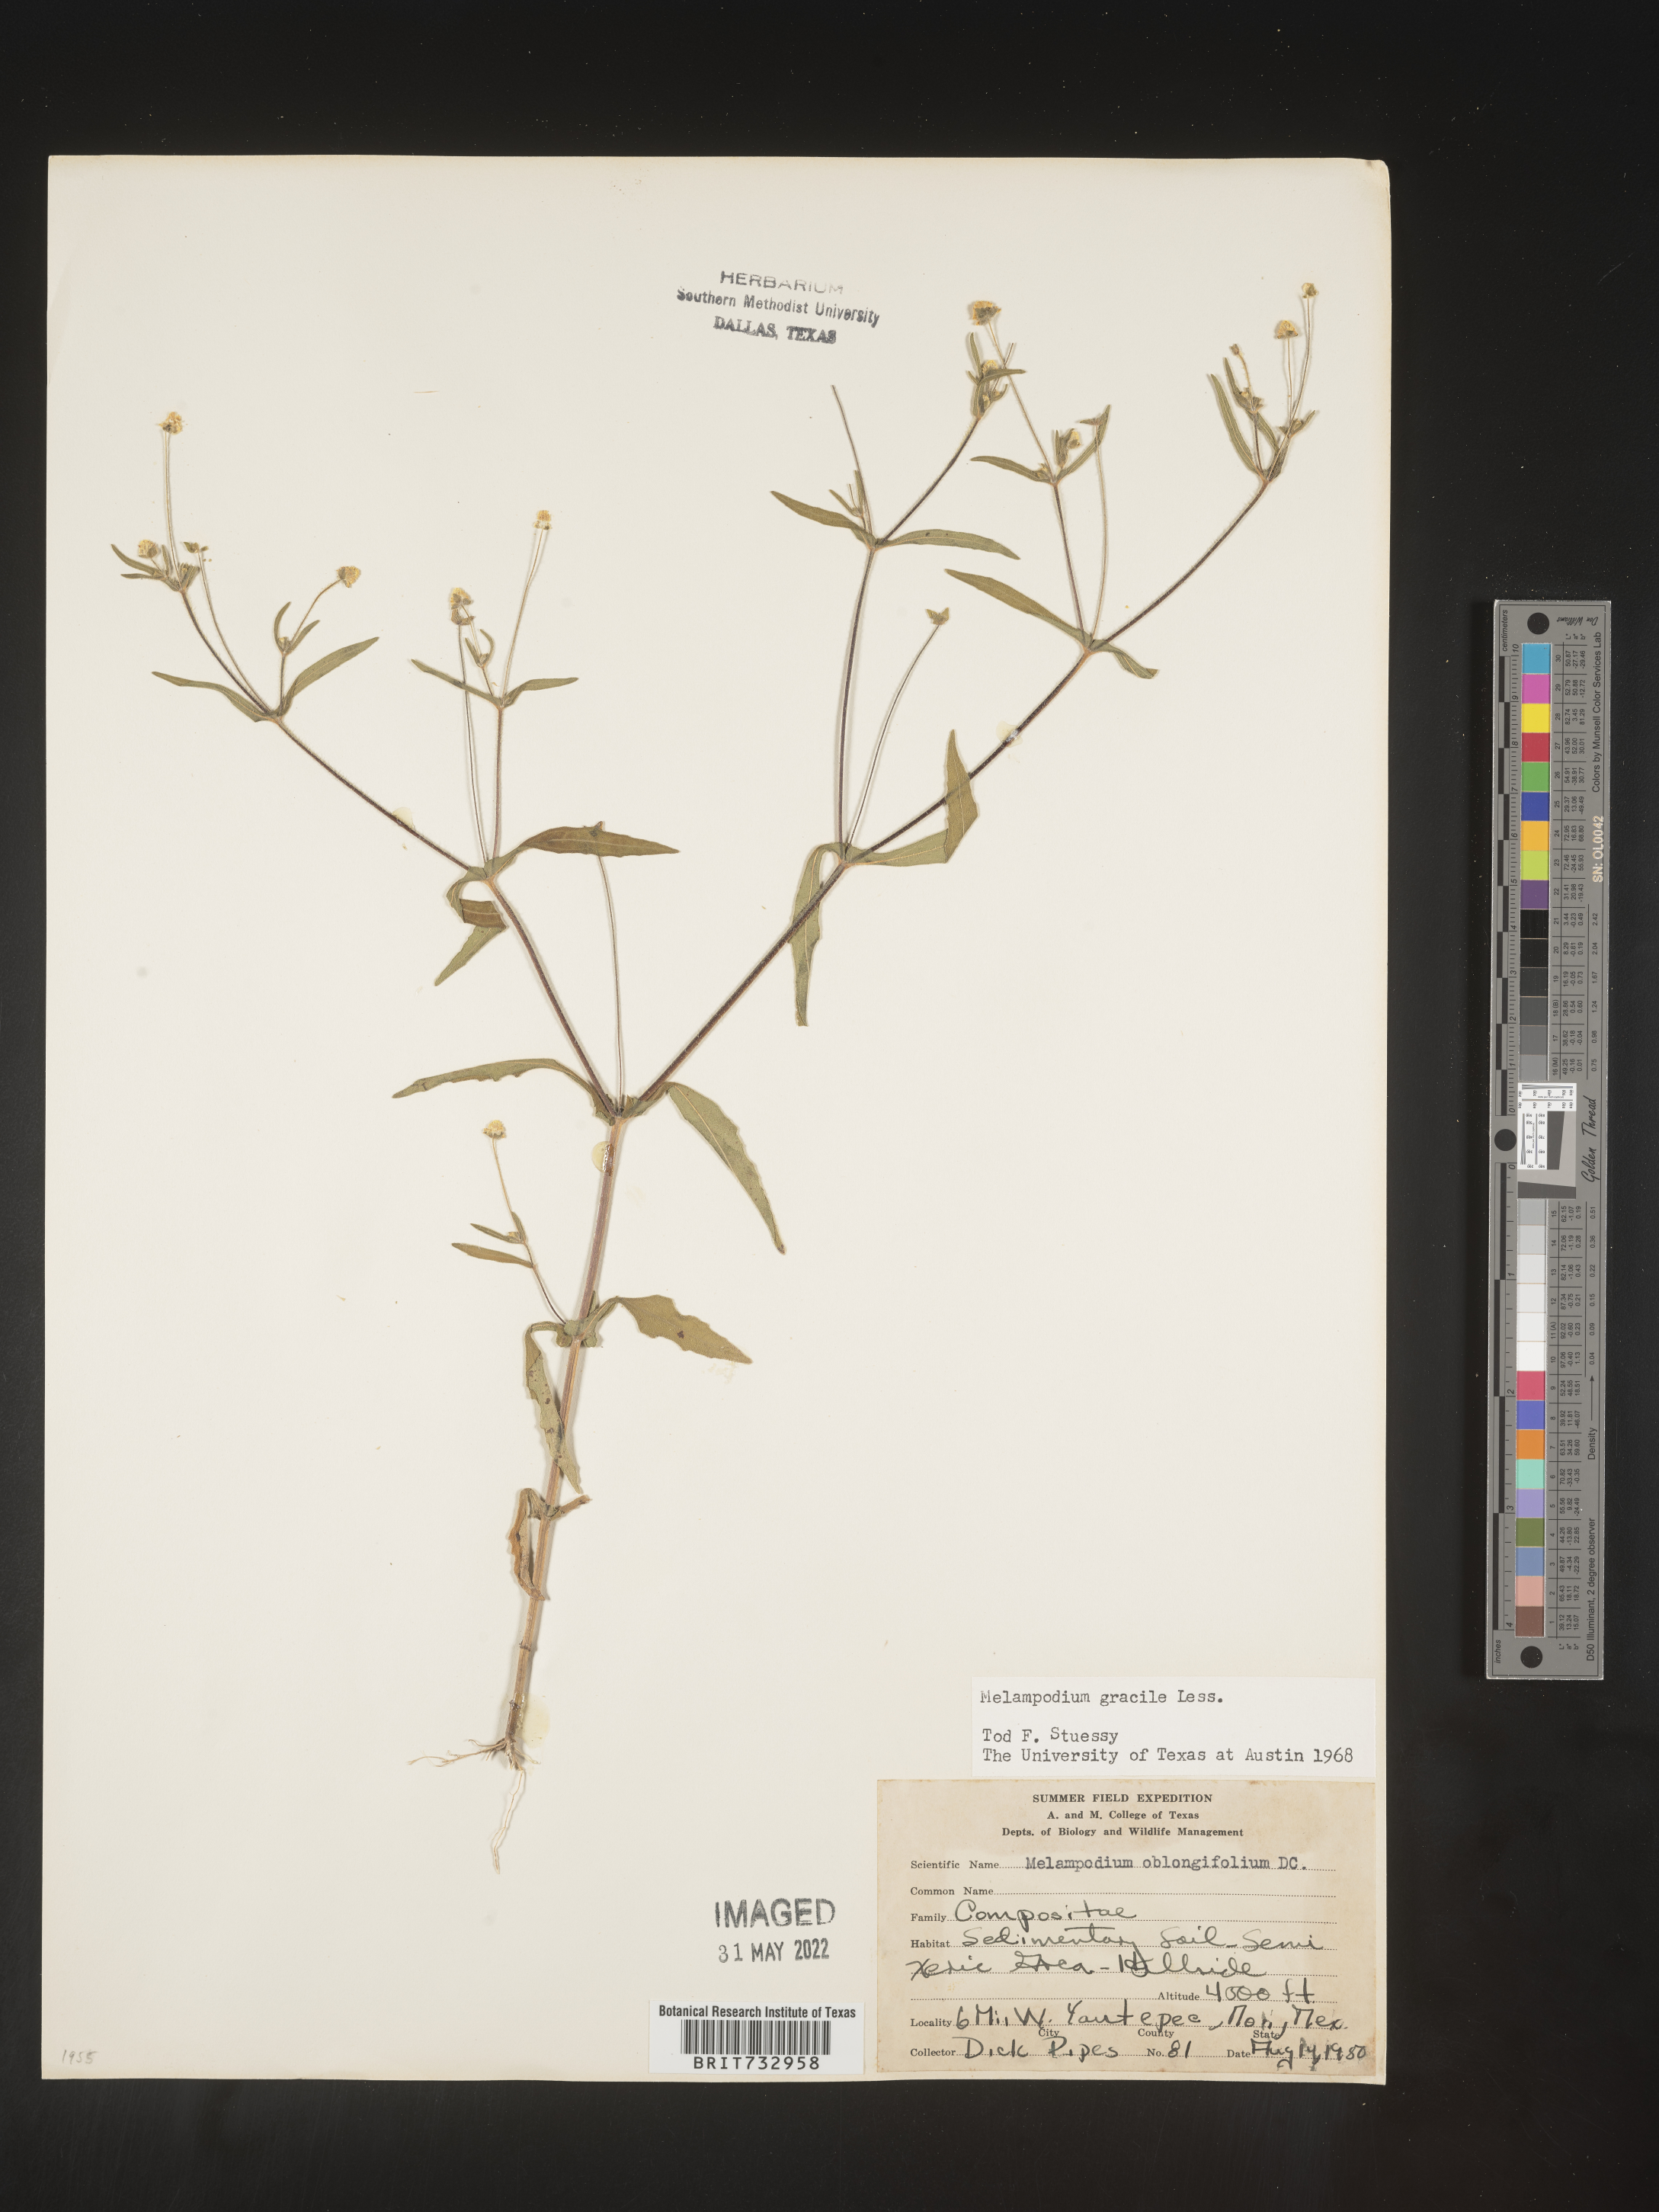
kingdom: Plantae
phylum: Tracheophyta
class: Magnoliopsida
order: Asterales
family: Asteraceae
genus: Melampodium
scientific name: Melampodium gracile
